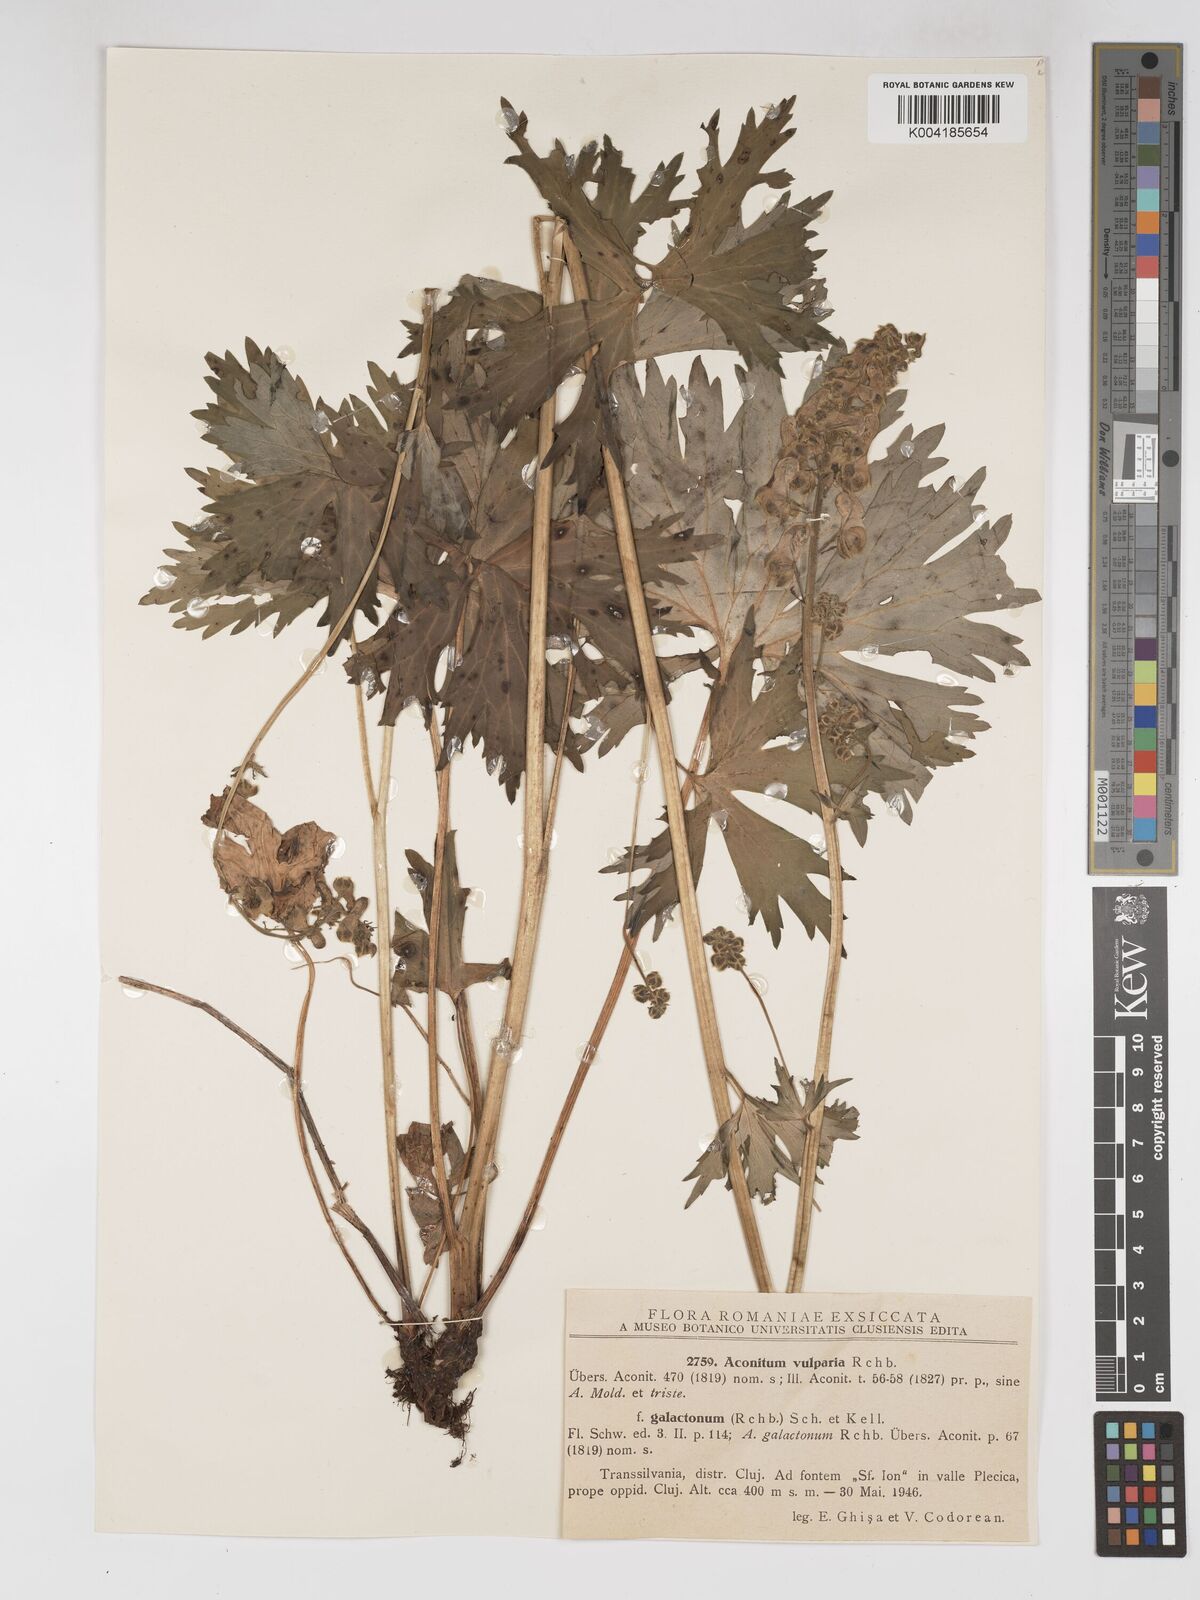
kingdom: Plantae
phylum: Tracheophyta
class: Magnoliopsida
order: Ranunculales
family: Ranunculaceae
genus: Aconitum
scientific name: Aconitum lycoctonum
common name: Wolf's-bane
